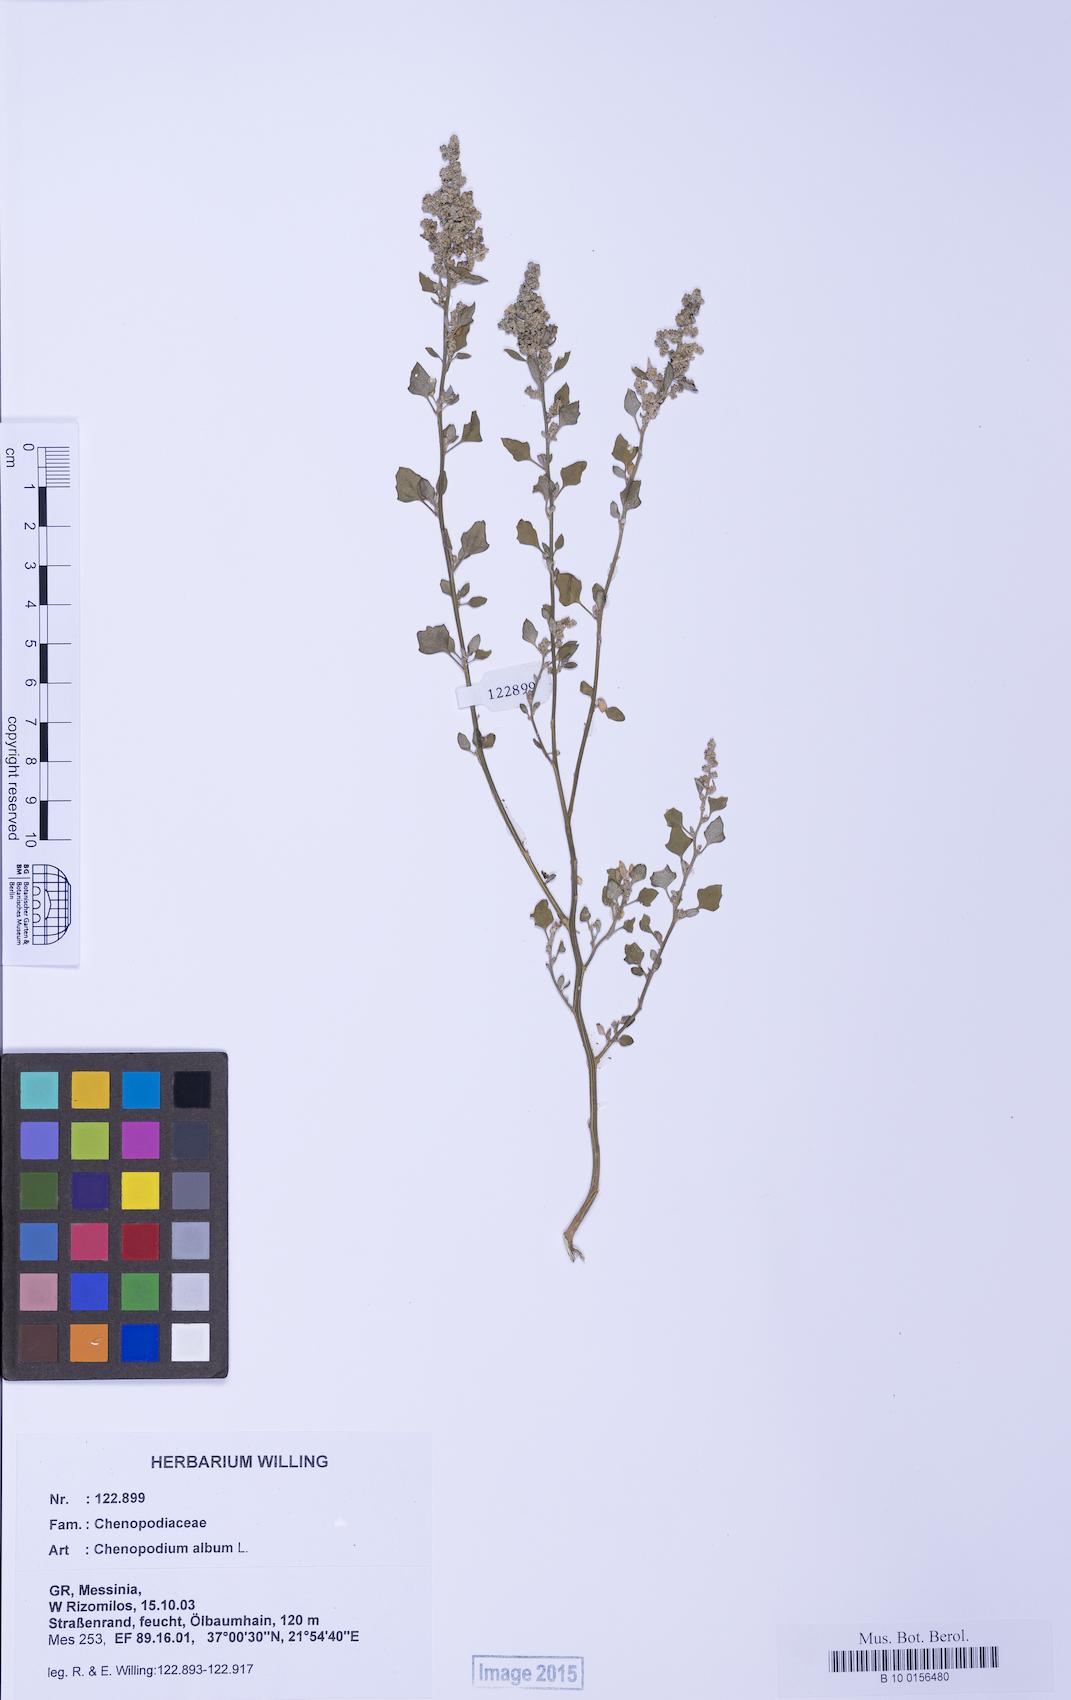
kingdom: Plantae
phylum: Tracheophyta
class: Magnoliopsida
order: Caryophyllales
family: Amaranthaceae
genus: Chenopodium
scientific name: Chenopodium opulifolium
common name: Grey goosefoot
